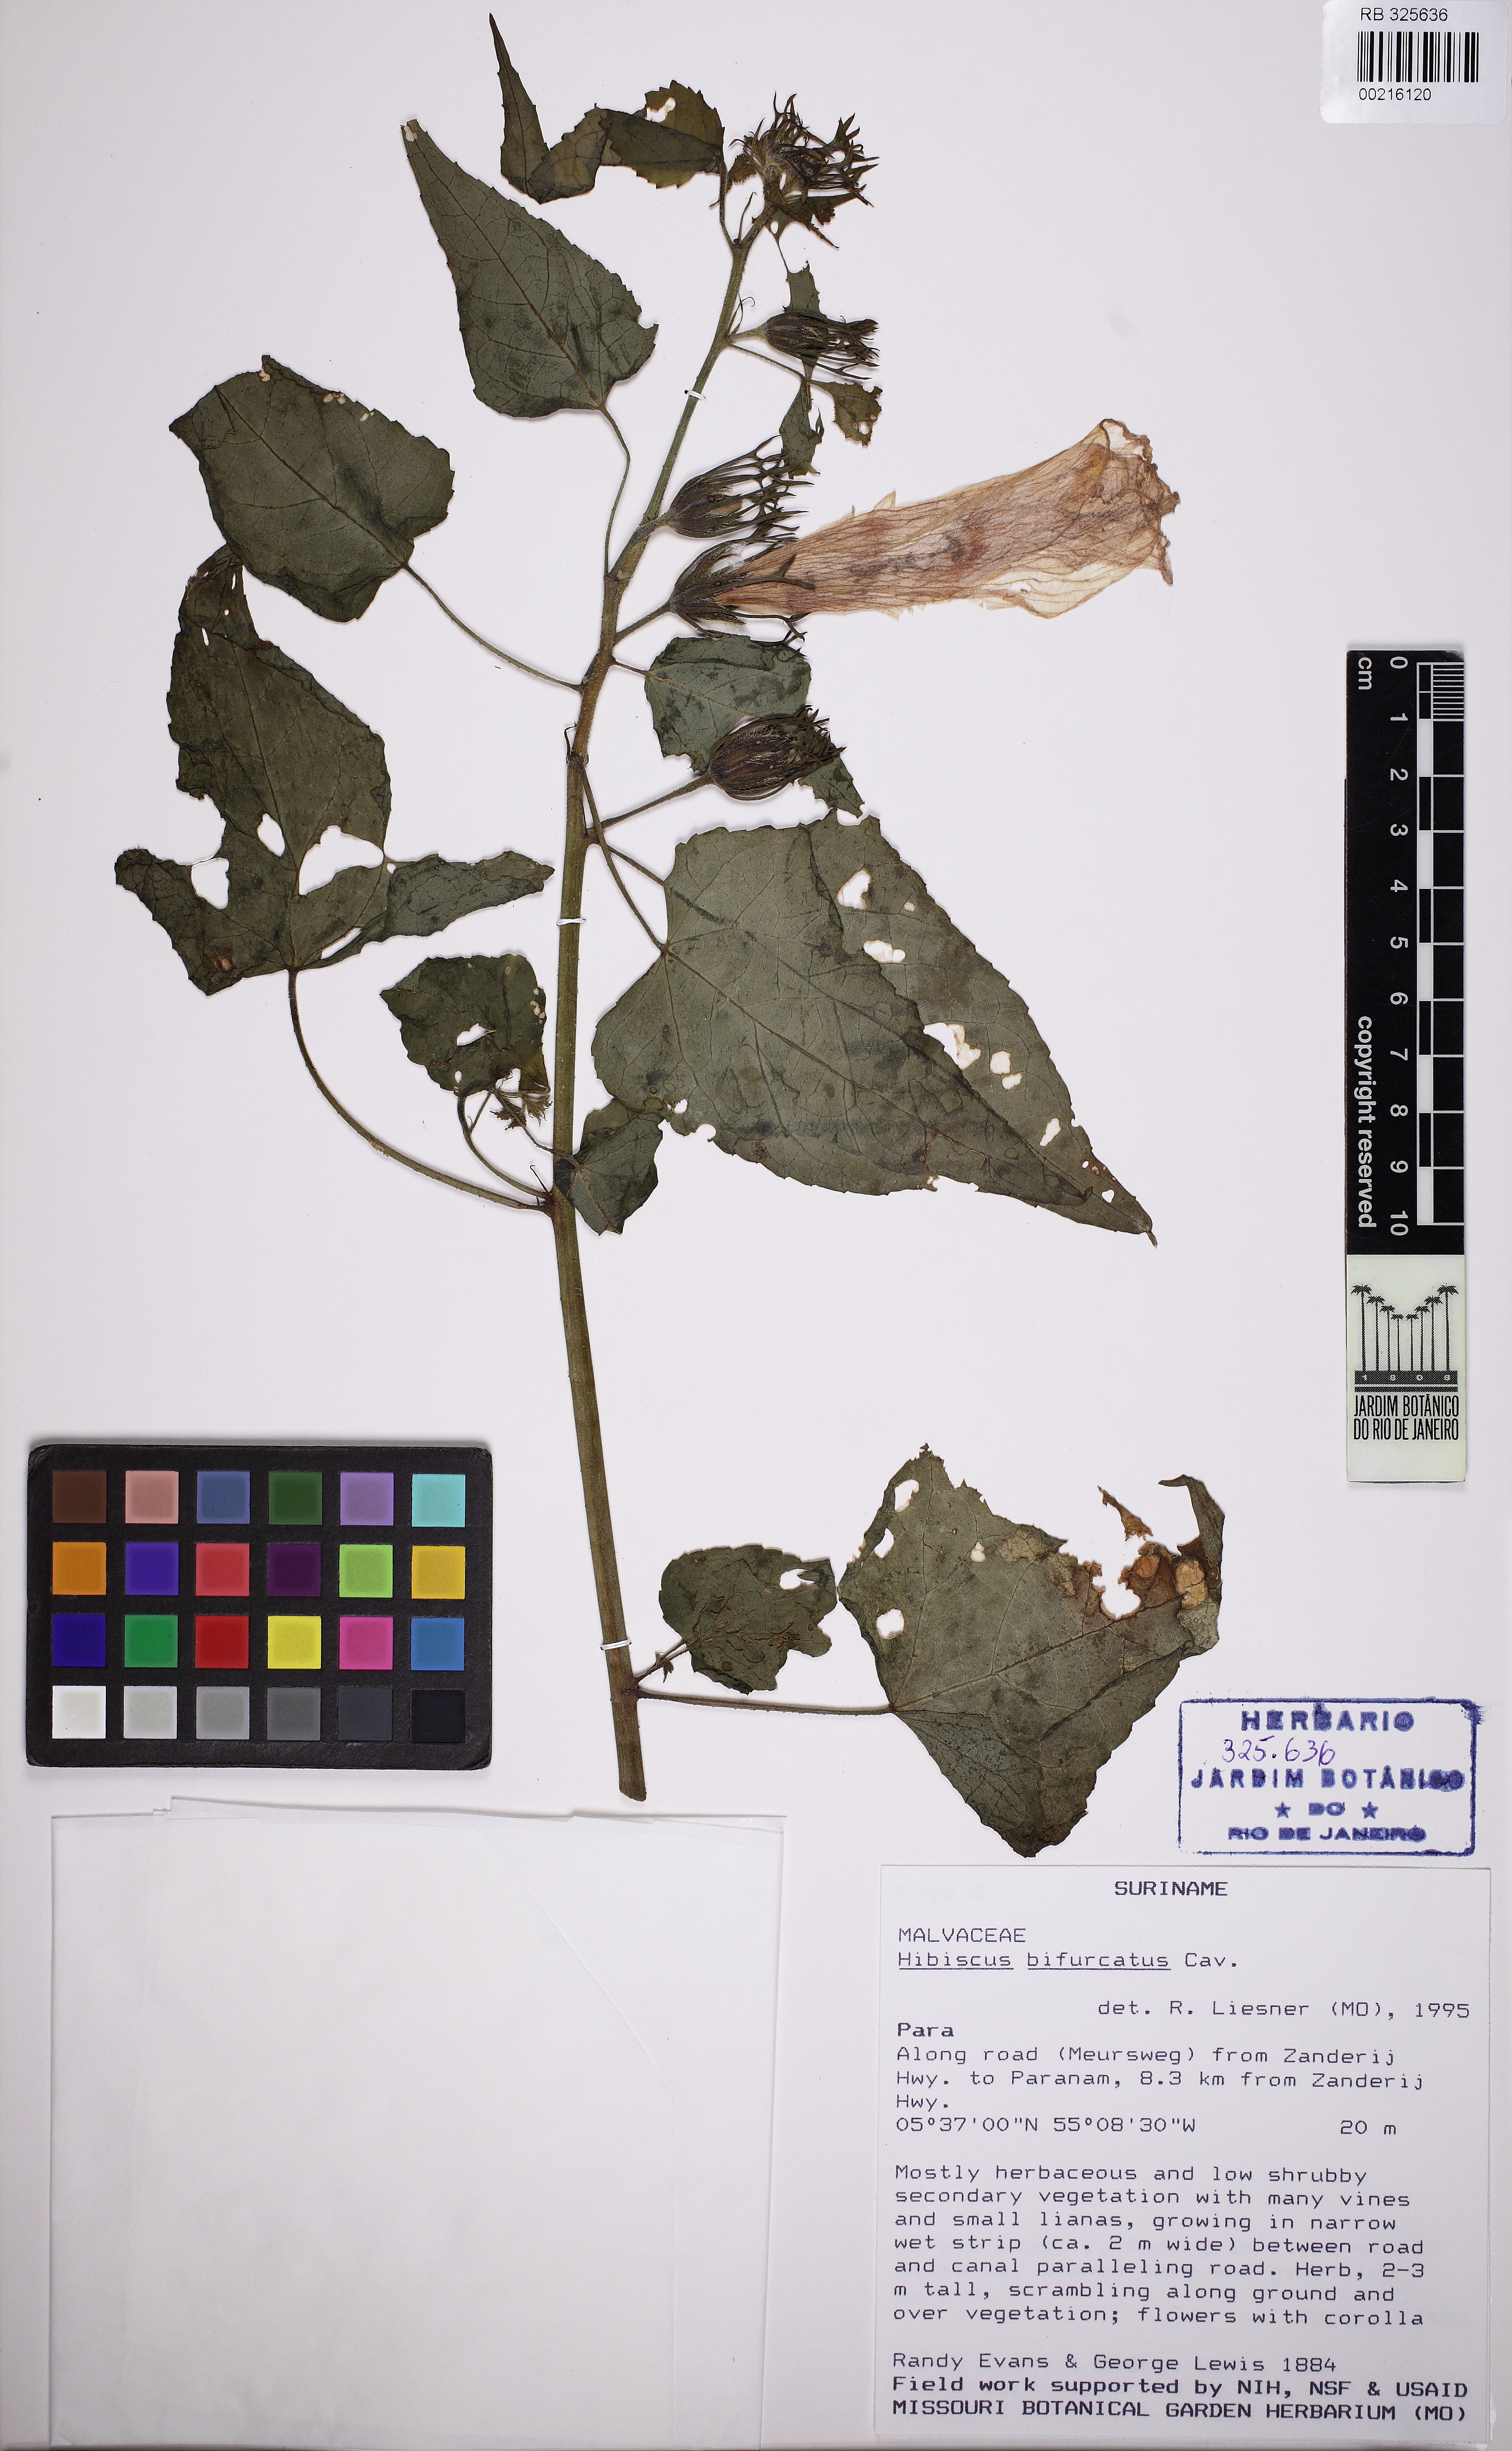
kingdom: Plantae
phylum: Tracheophyta
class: Magnoliopsida
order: Malvales
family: Malvaceae
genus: Hibiscus
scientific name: Hibiscus bifurcatus
